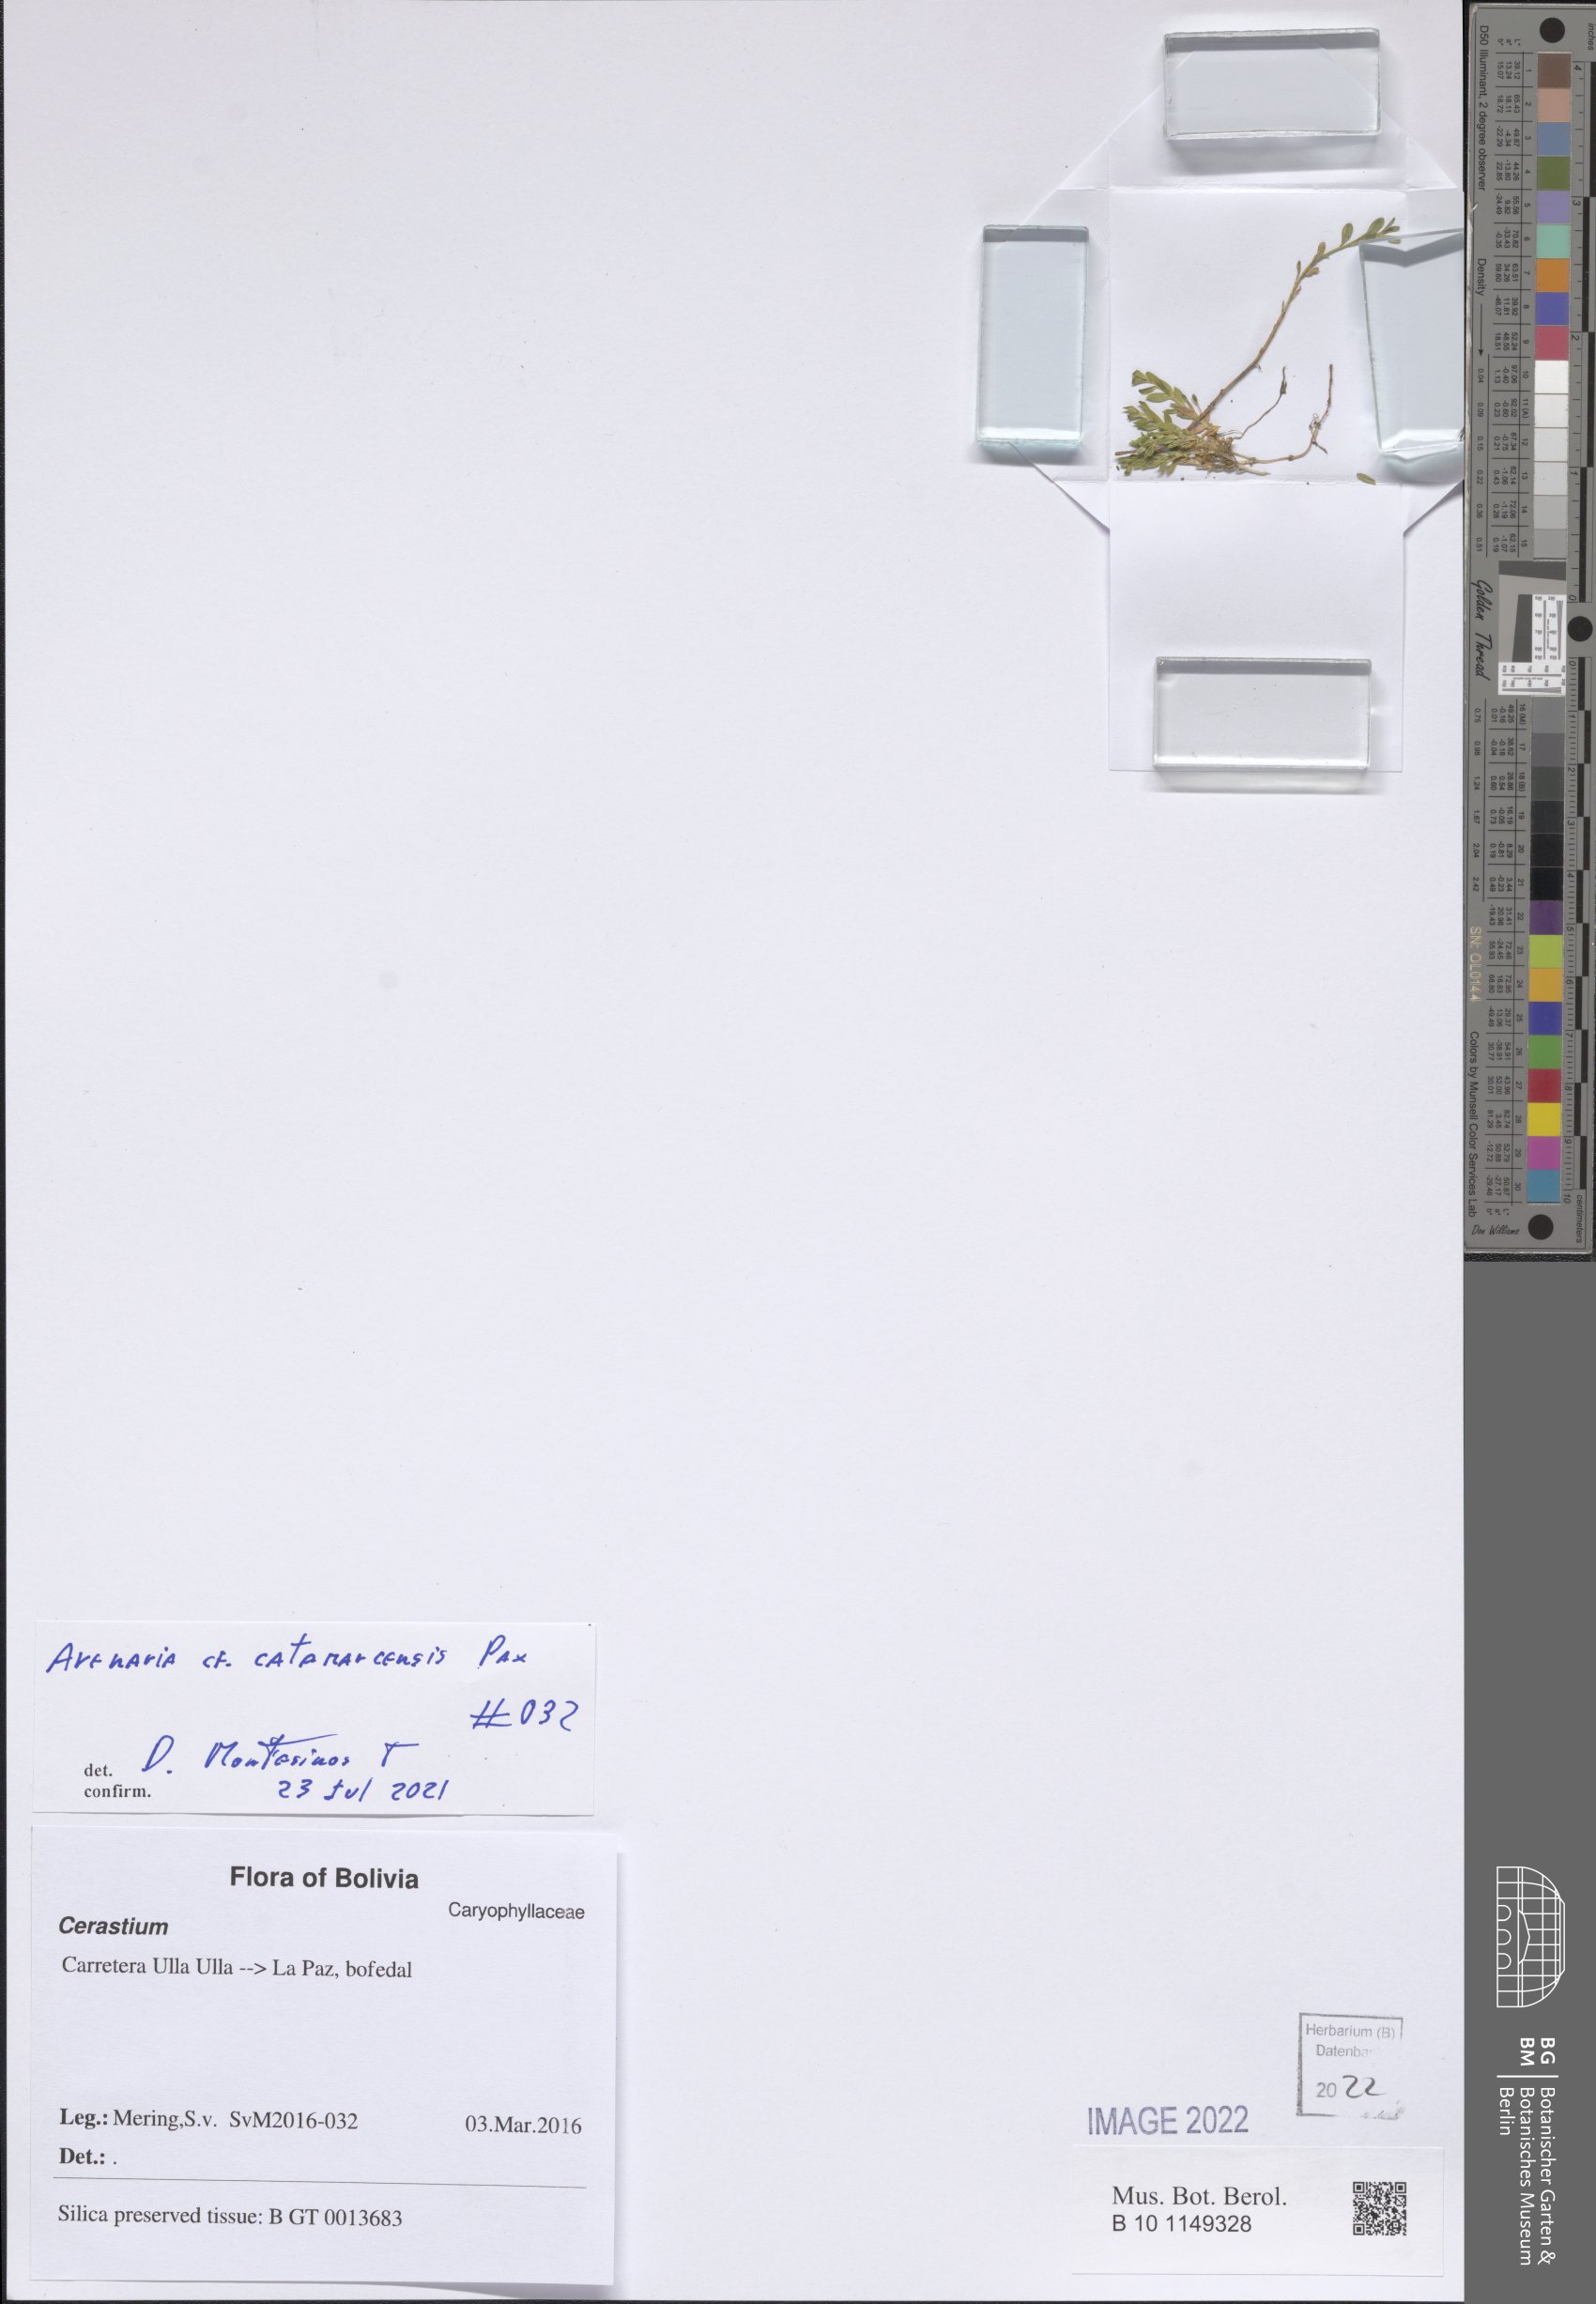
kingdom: Plantae
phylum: Tracheophyta
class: Magnoliopsida
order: Caryophyllales
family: Caryophyllaceae
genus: Arenaria
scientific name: Arenaria catamarcensis
